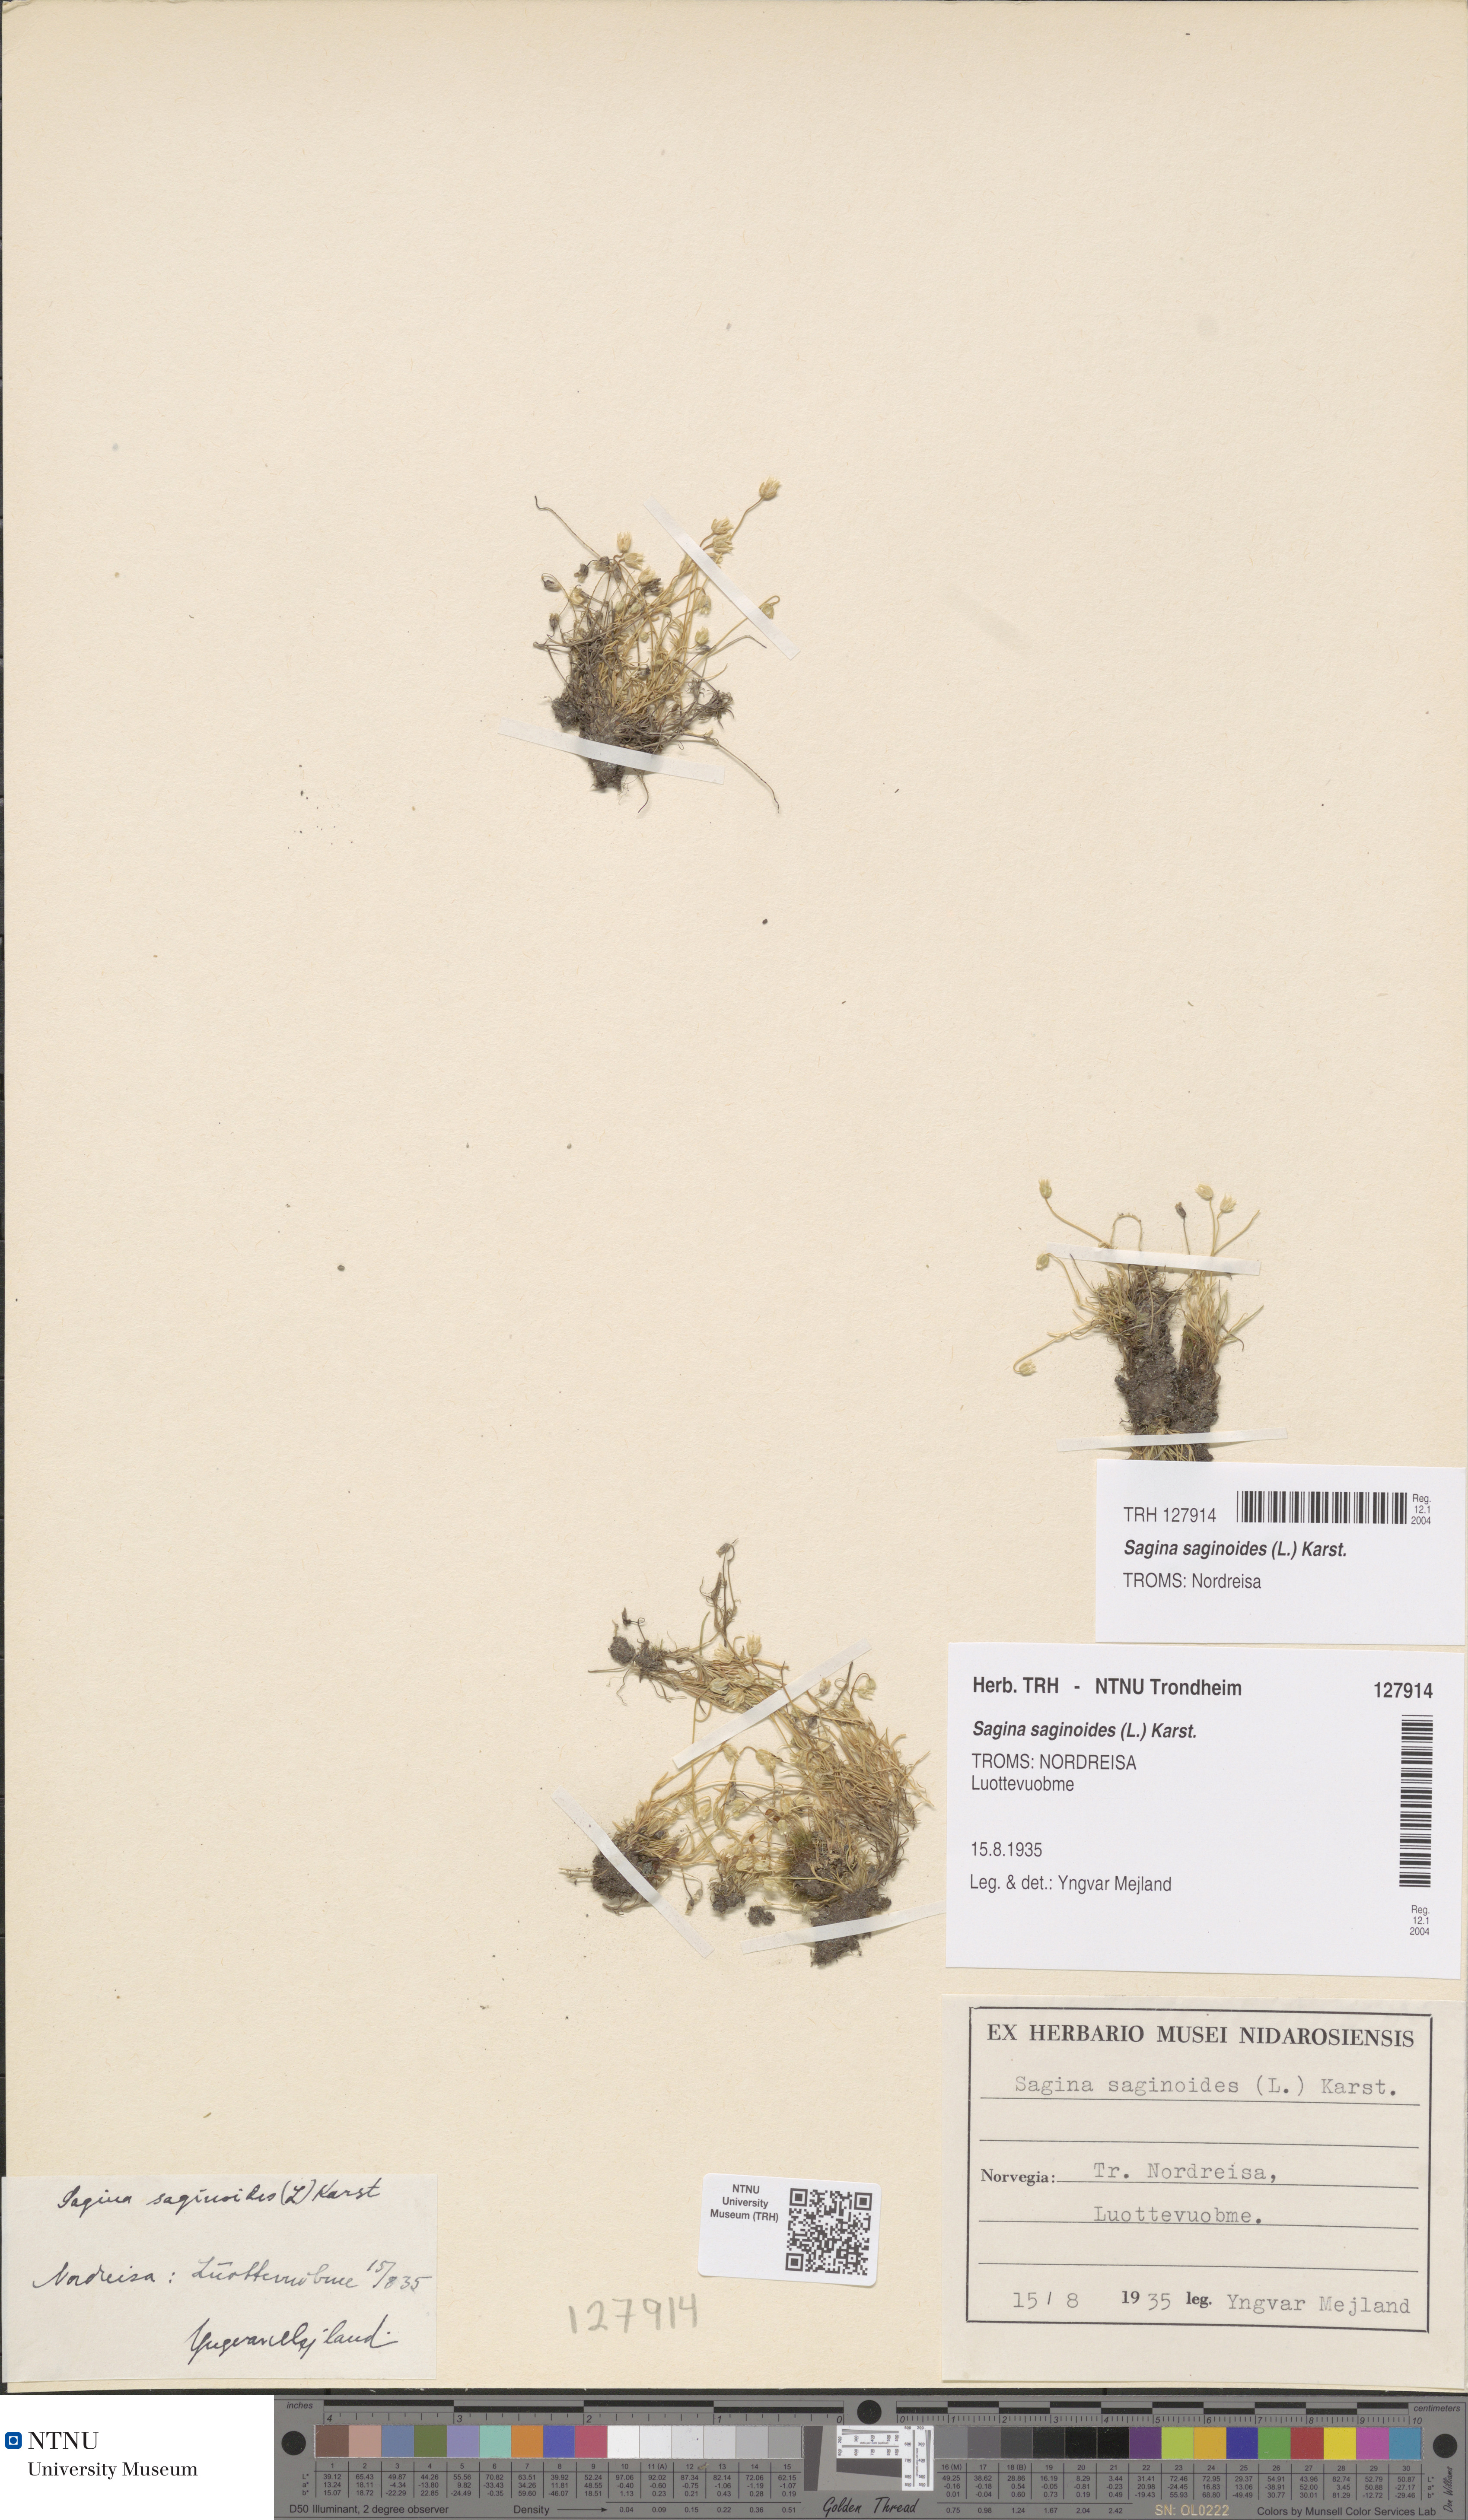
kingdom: Plantae
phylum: Tracheophyta
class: Magnoliopsida
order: Caryophyllales
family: Caryophyllaceae
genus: Sagina
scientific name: Sagina saginoides
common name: Alpine pearlwort
